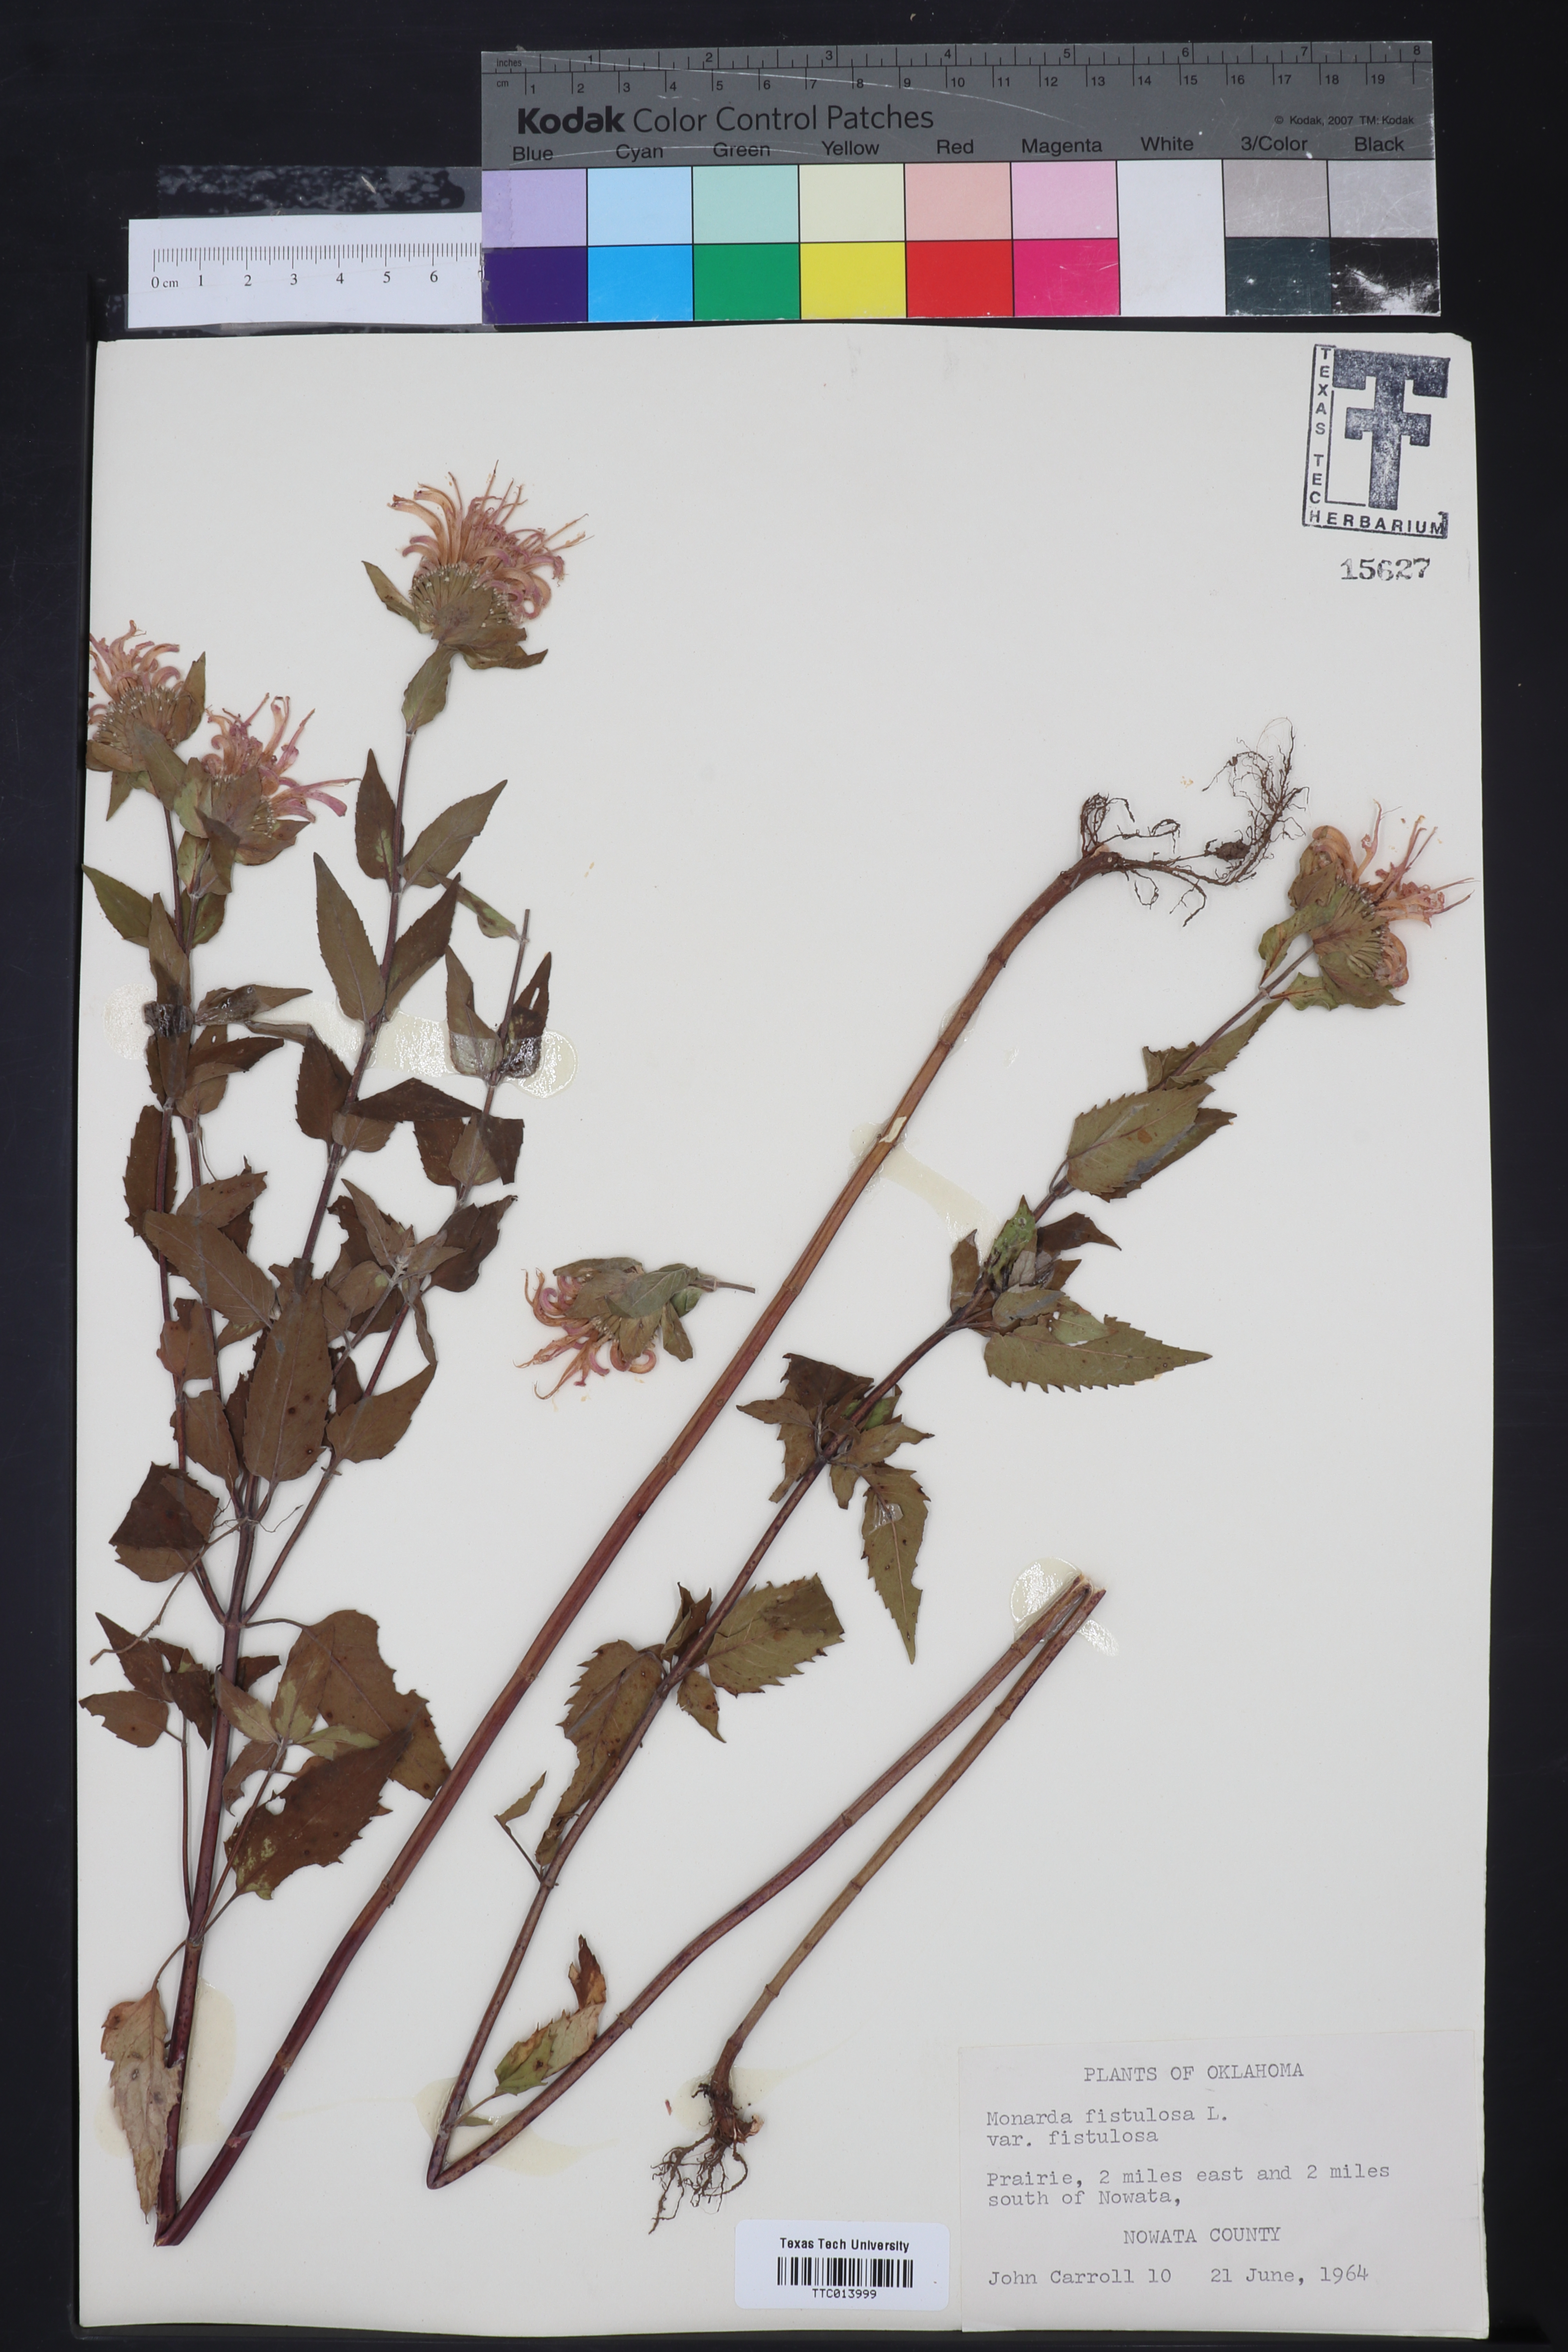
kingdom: Plantae
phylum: Tracheophyta
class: Magnoliopsida
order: Lamiales
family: Lamiaceae
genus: Monarda
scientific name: Monarda fistulosa
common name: Purple beebalm
